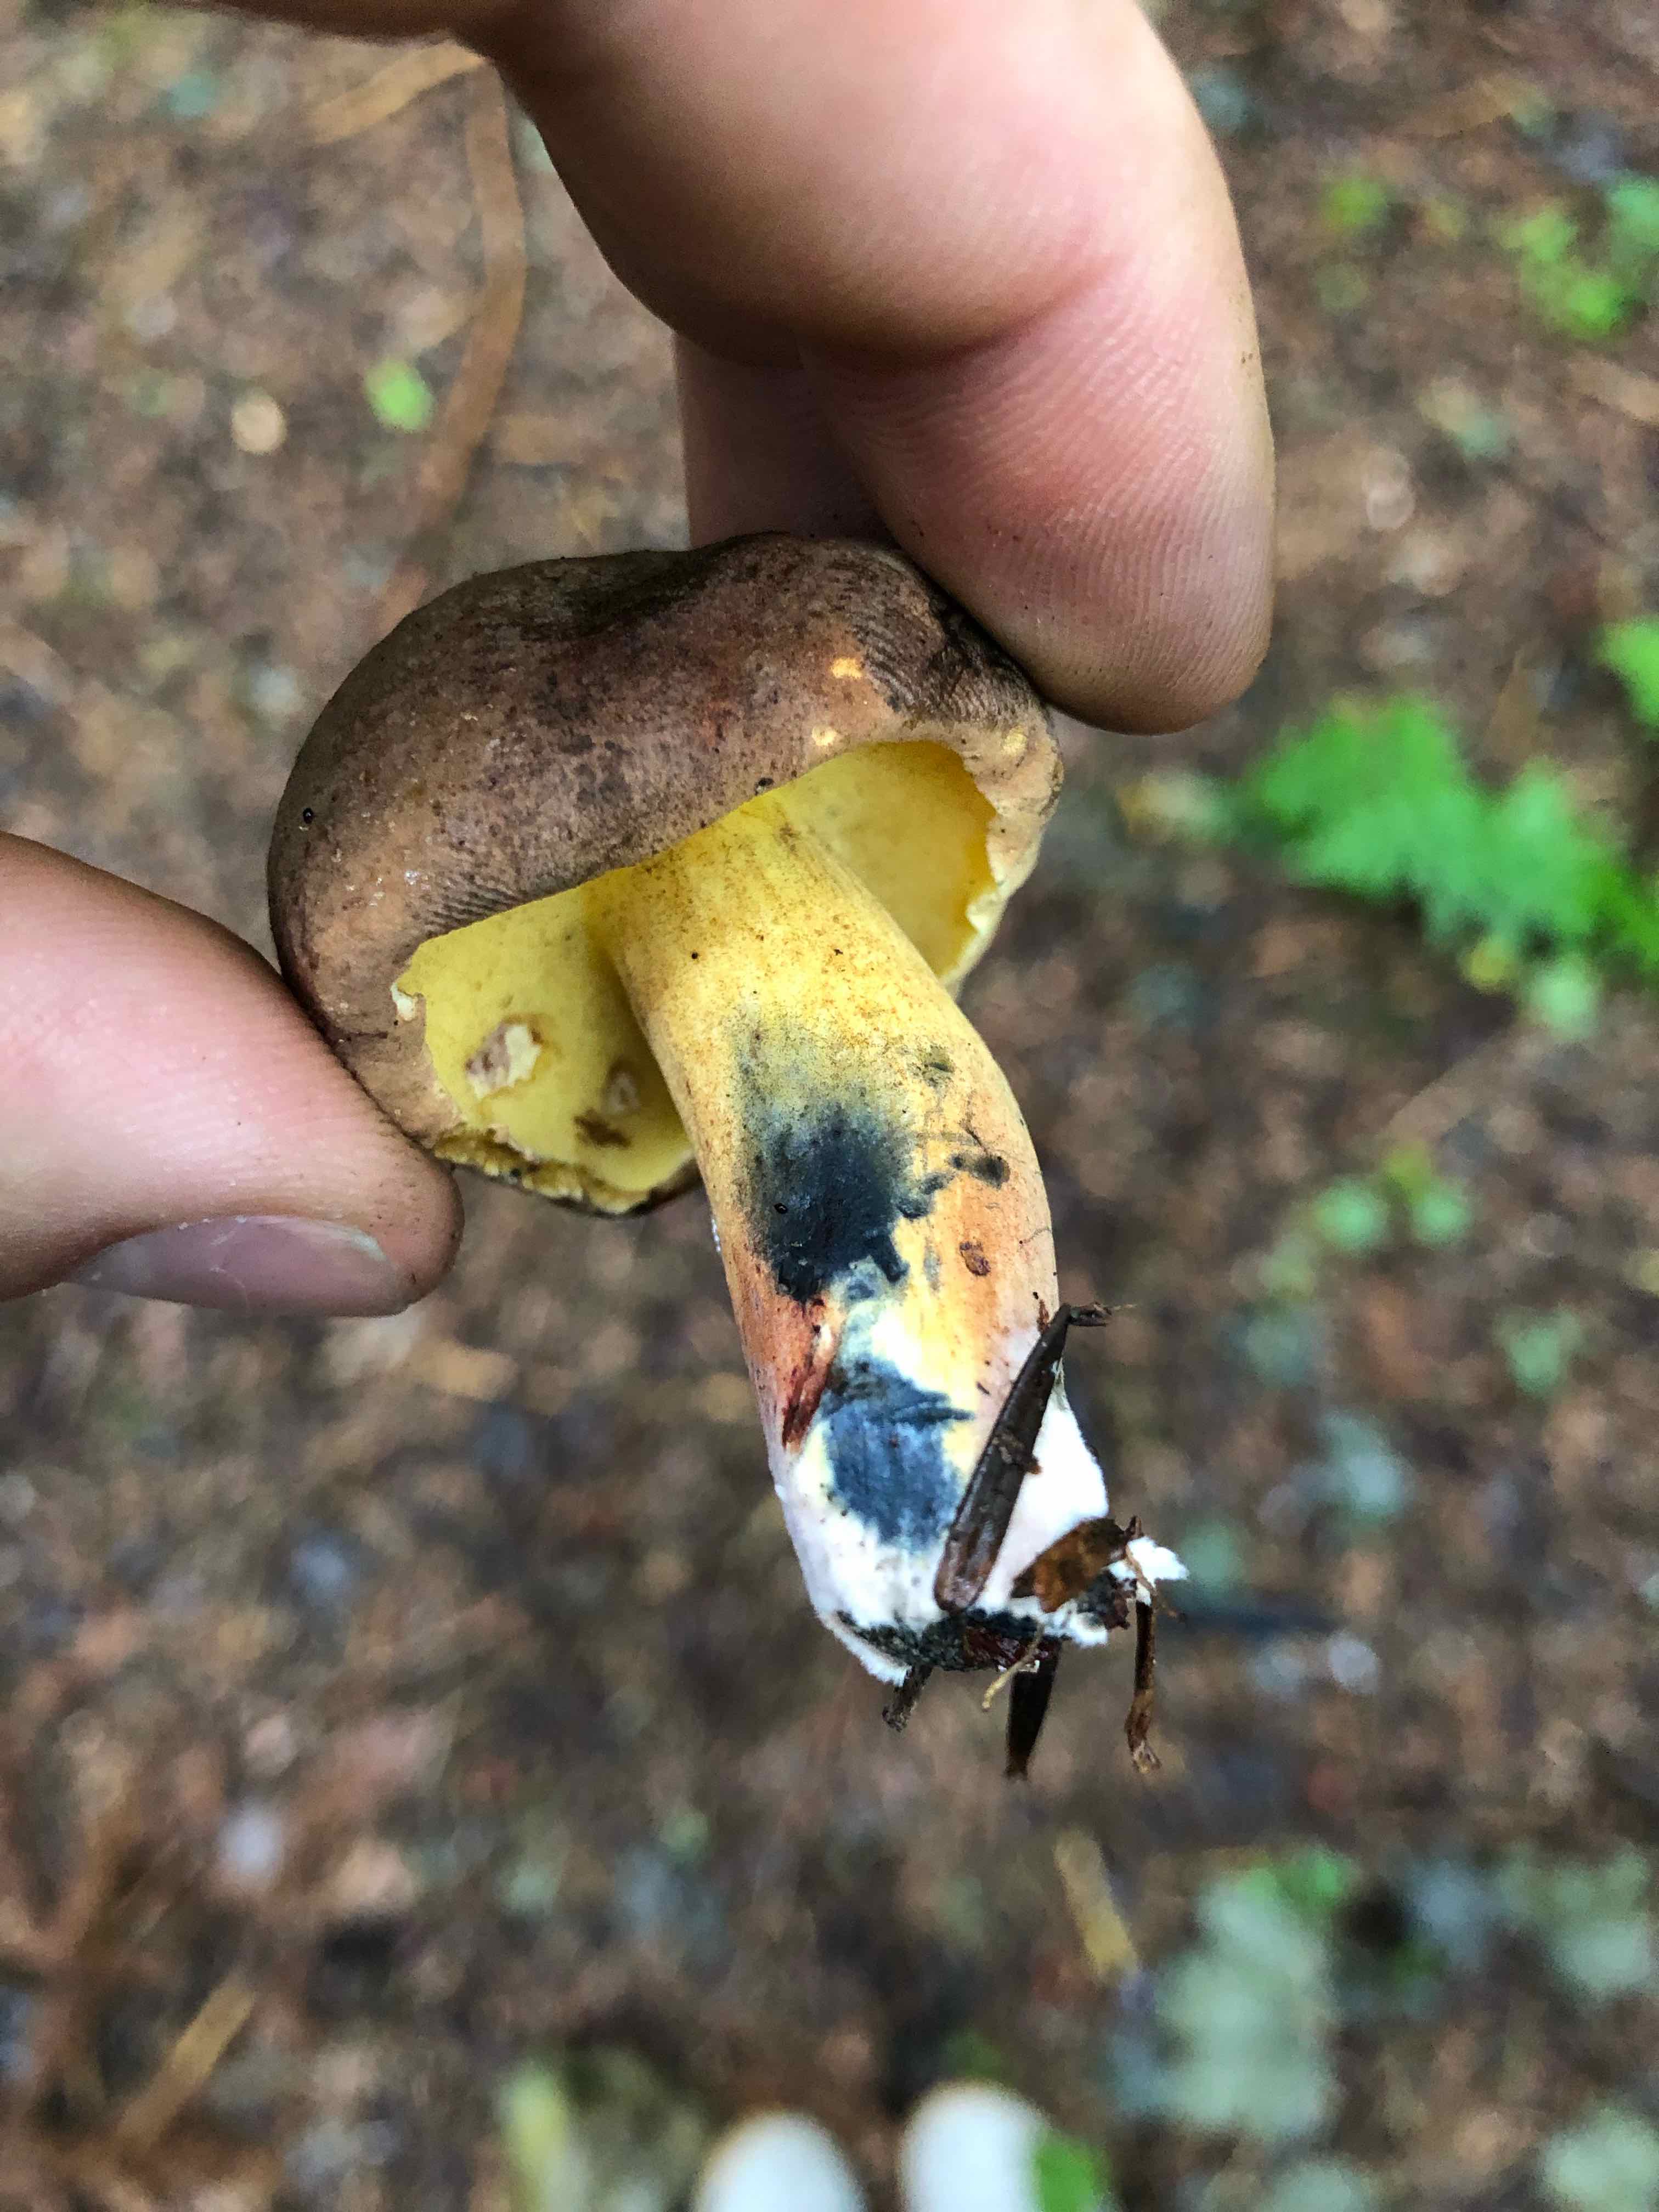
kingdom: Fungi
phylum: Basidiomycota
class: Agaricomycetes
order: Boletales
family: Boletaceae
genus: Cyanoboletus
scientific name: Cyanoboletus pulverulentus
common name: sortblånende rørhat
